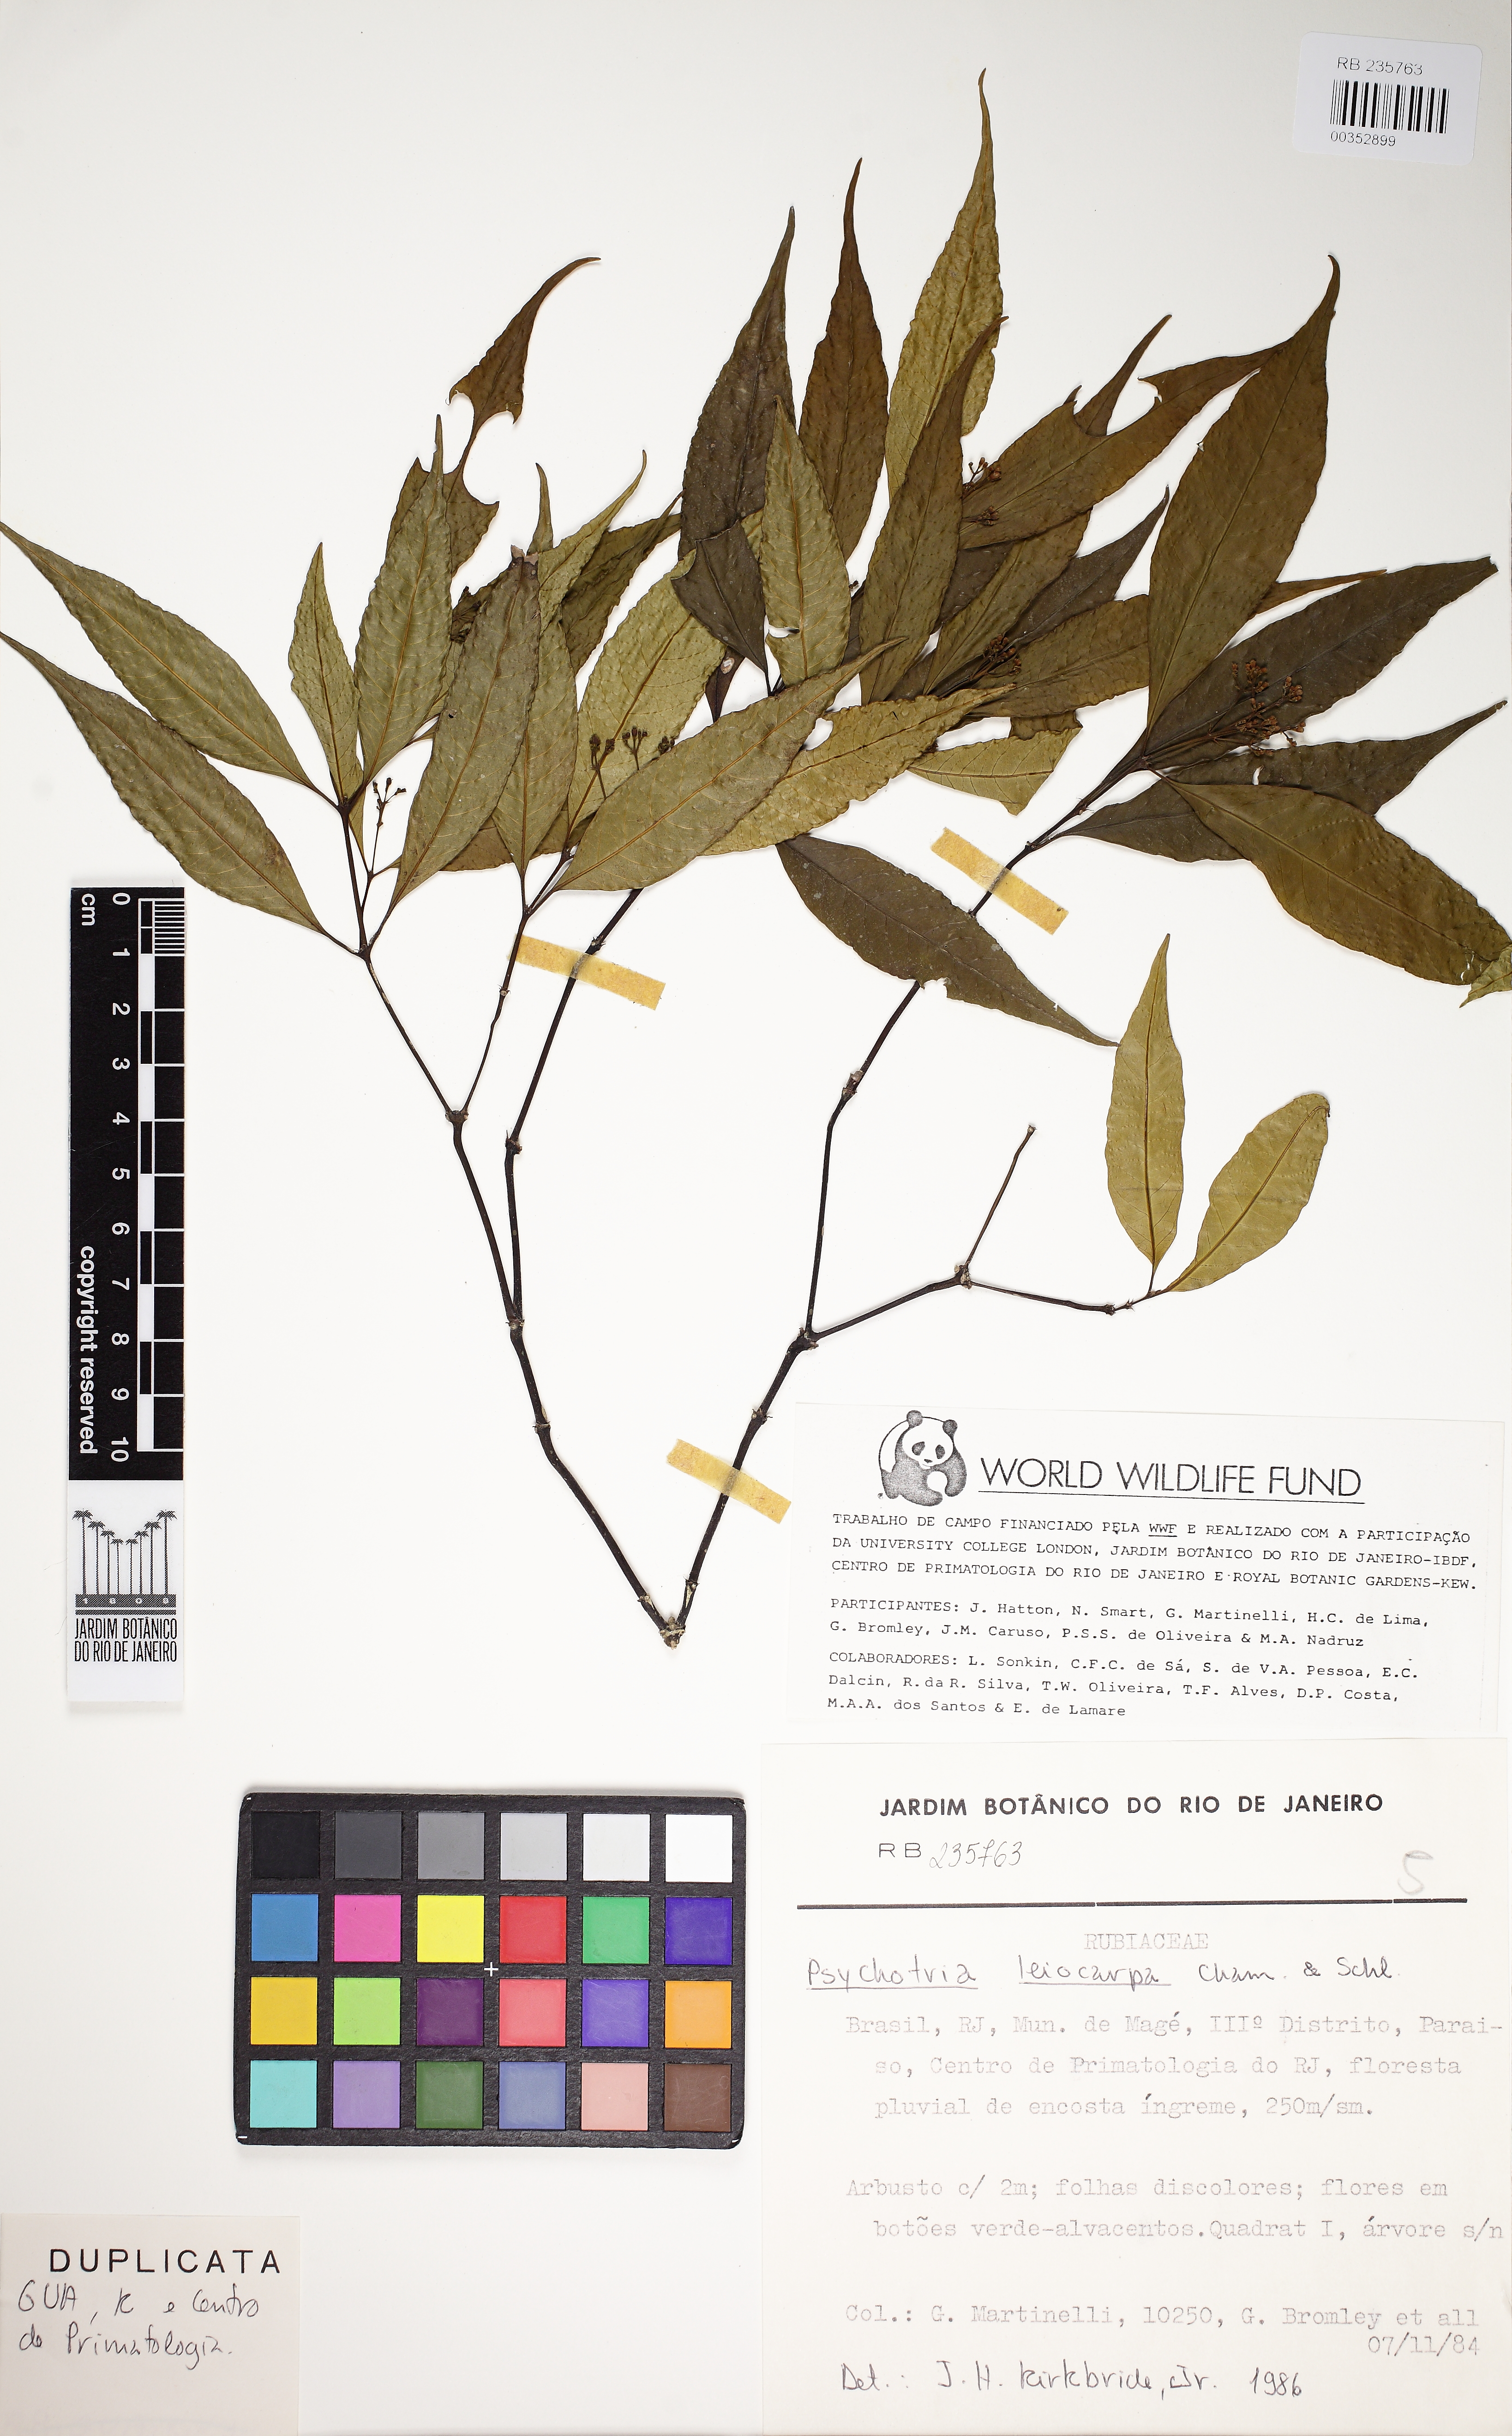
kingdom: Plantae
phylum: Tracheophyta
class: Magnoliopsida
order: Gentianales
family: Rubiaceae
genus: Psychotria
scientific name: Psychotria leiocarpa
